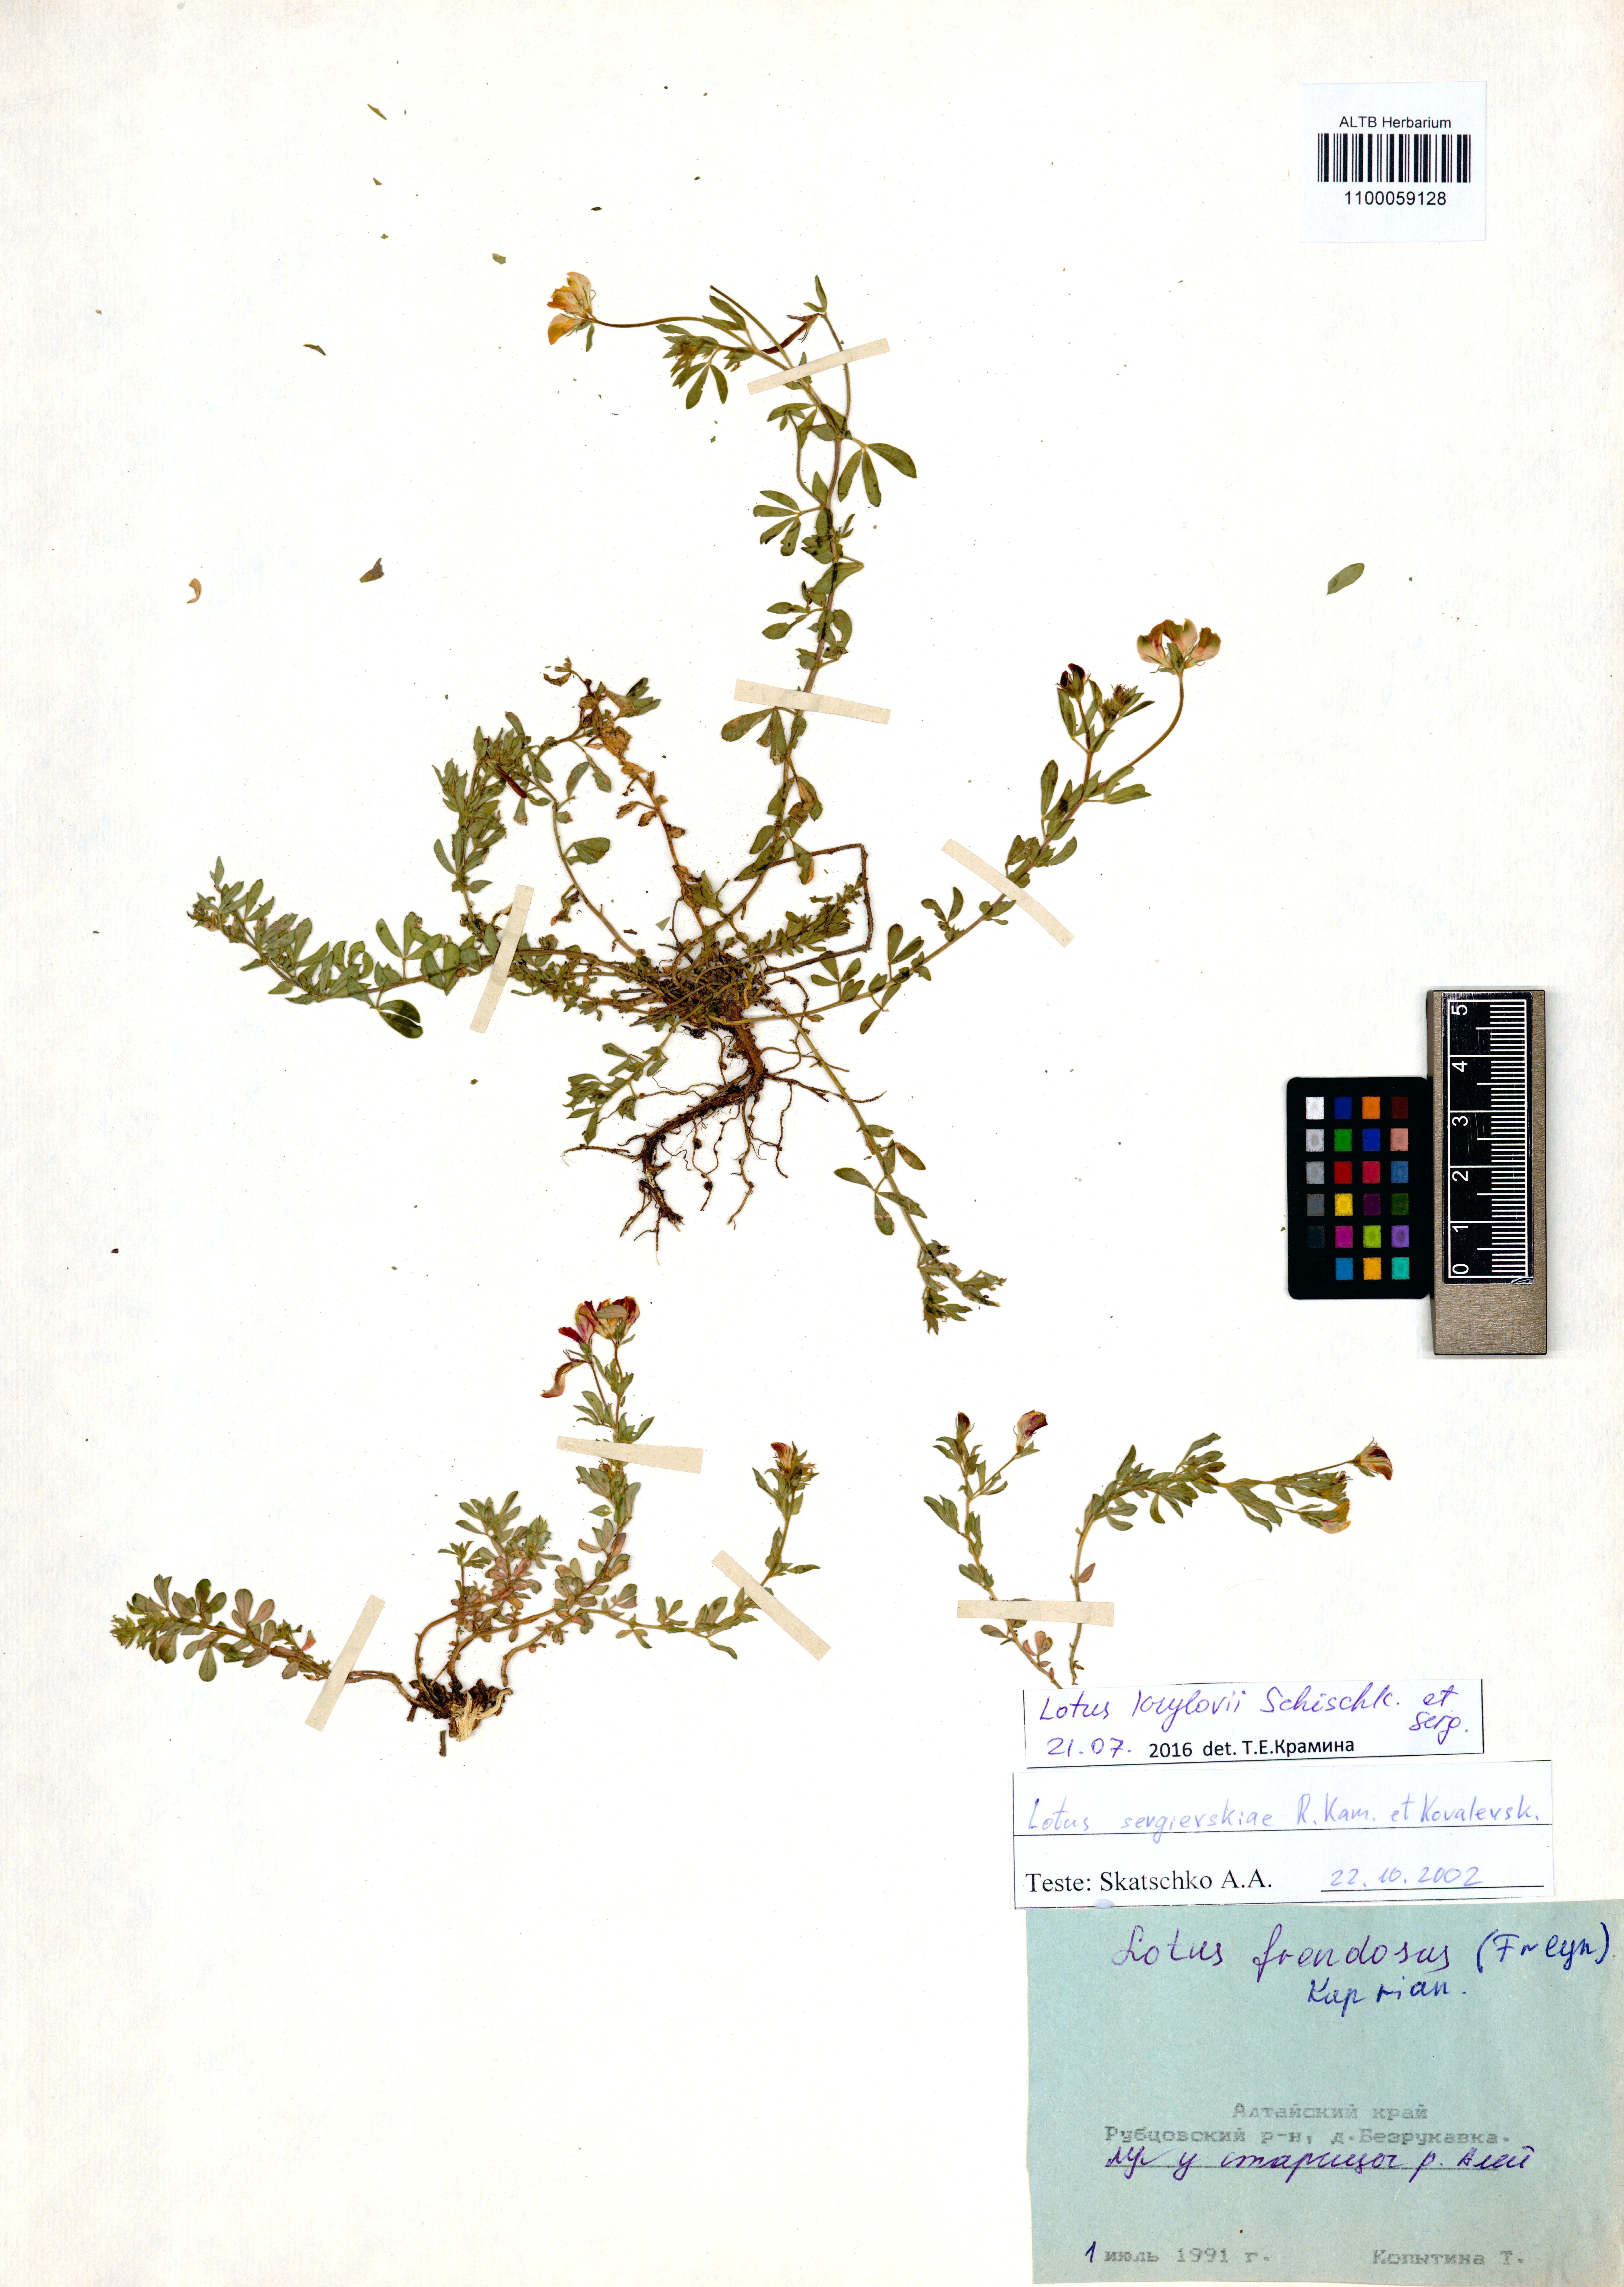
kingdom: Plantae
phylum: Tracheophyta
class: Magnoliopsida
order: Fabales
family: Fabaceae
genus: Lotus
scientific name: Lotus krylovii
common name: Krylov's bird's-foot trefoil
